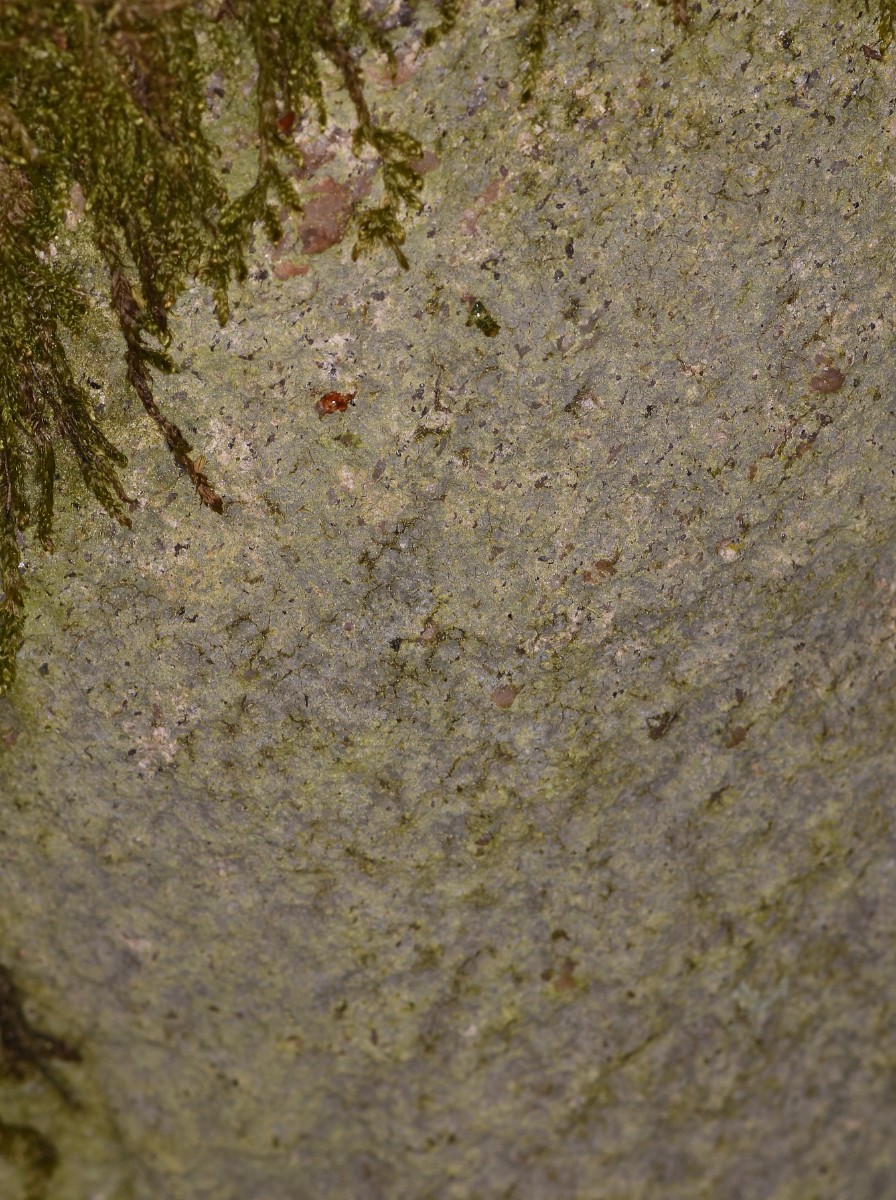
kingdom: Fungi
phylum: Ascomycota
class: Lecanoromycetes
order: Baeomycetales
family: Trapeliaceae
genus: Kleopowiella
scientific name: Kleopowiella placodioides
